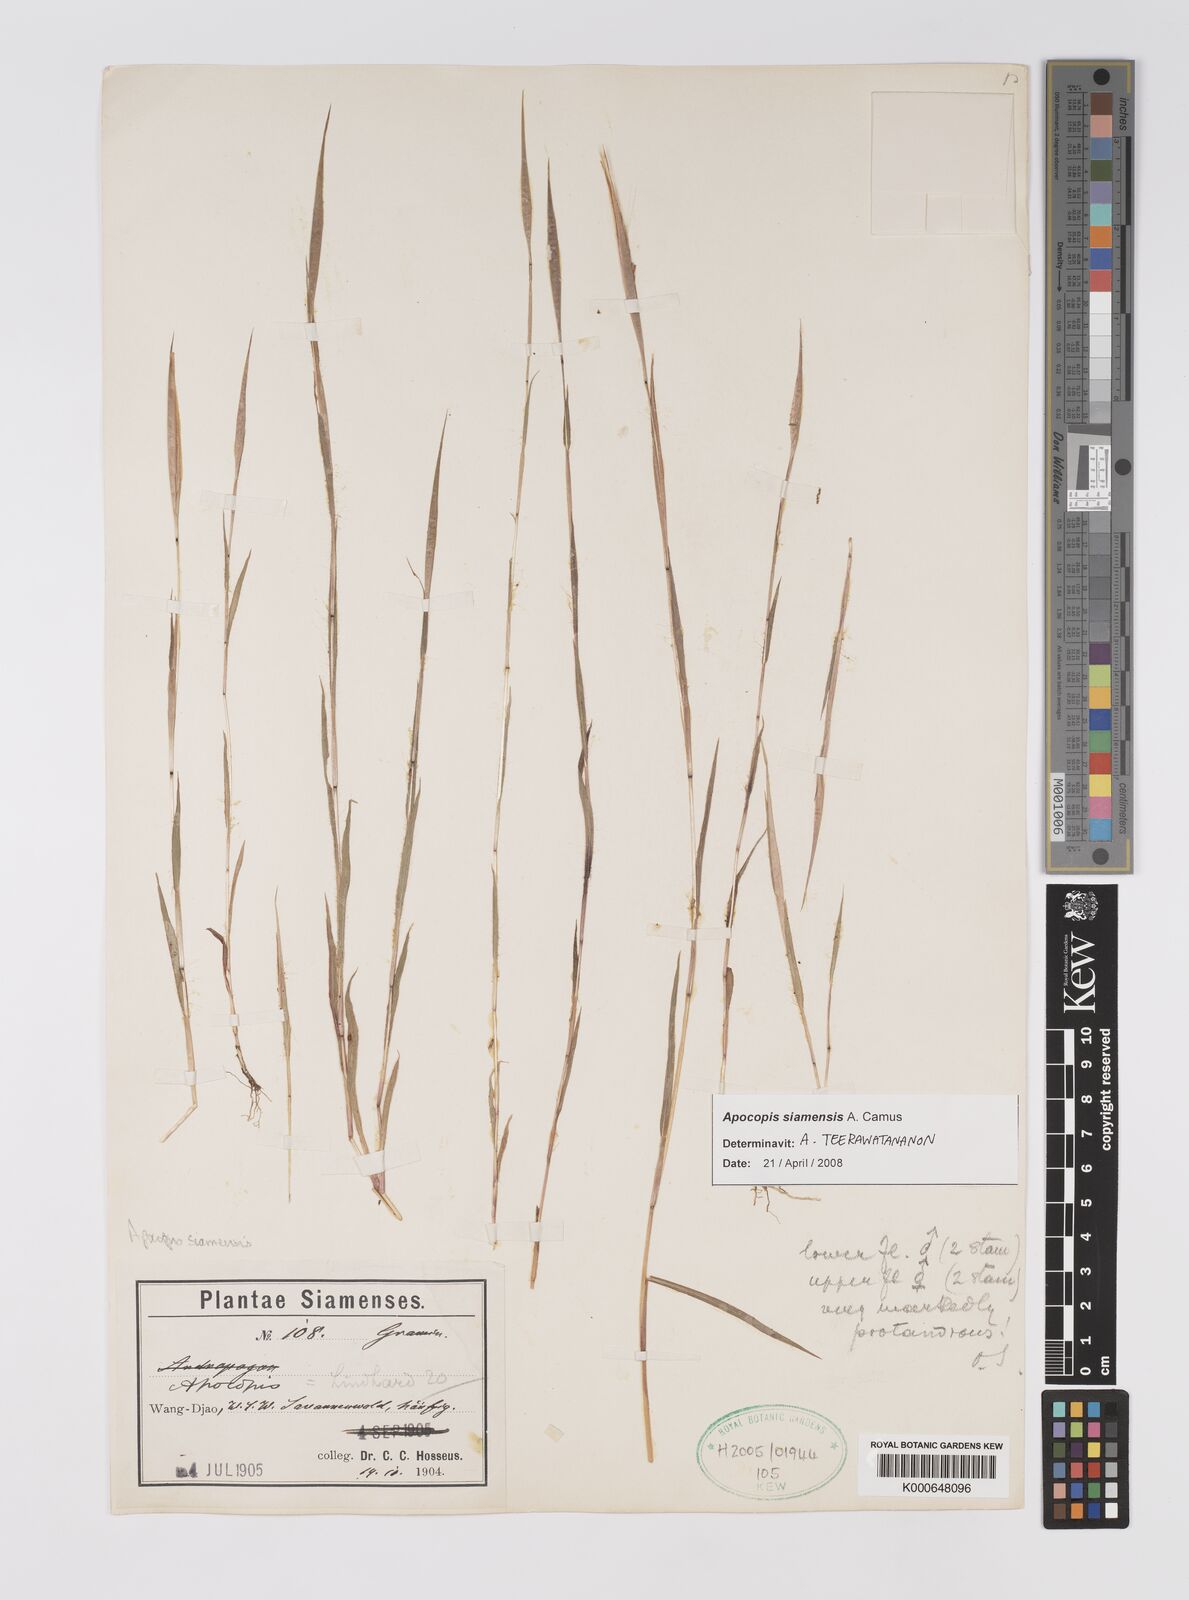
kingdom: Plantae
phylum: Tracheophyta
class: Liliopsida
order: Poales
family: Poaceae
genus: Apocopis
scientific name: Apocopis siamensis
